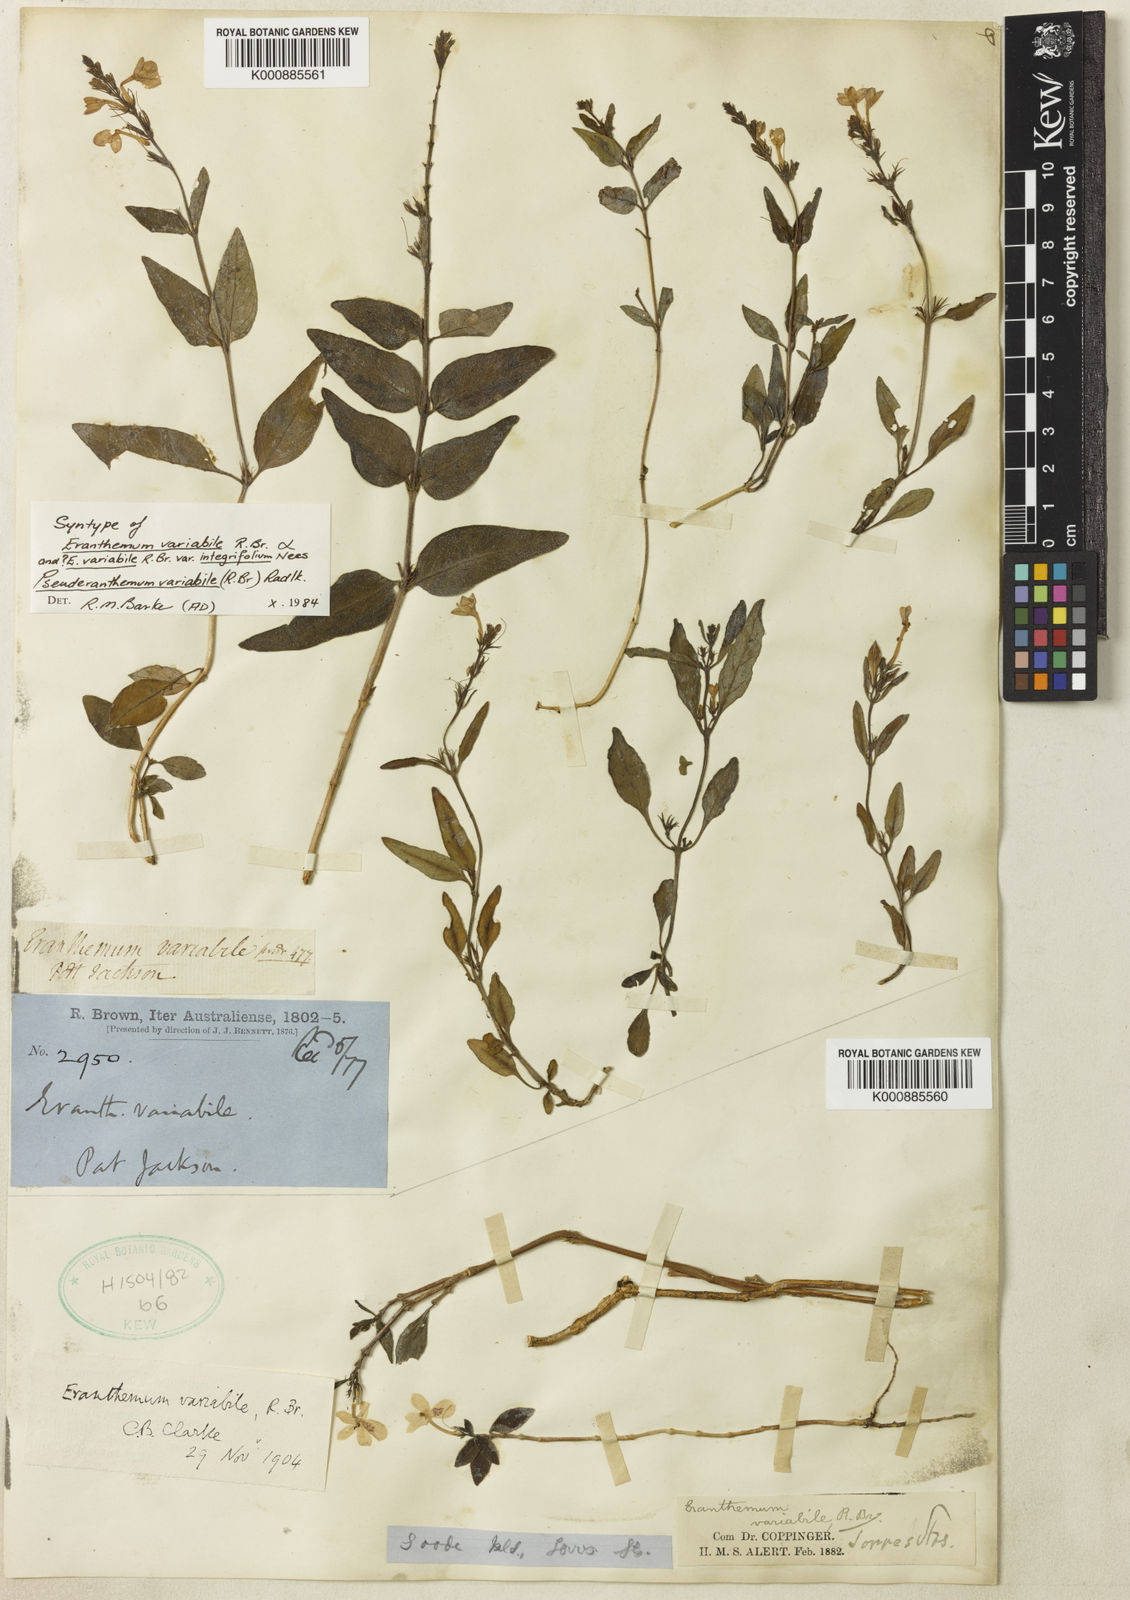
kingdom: Plantae
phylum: Tracheophyta
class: Magnoliopsida
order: Lamiales
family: Acanthaceae
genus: Pseuderanthemum
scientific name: Pseuderanthemum variabile
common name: Night and afternoon
